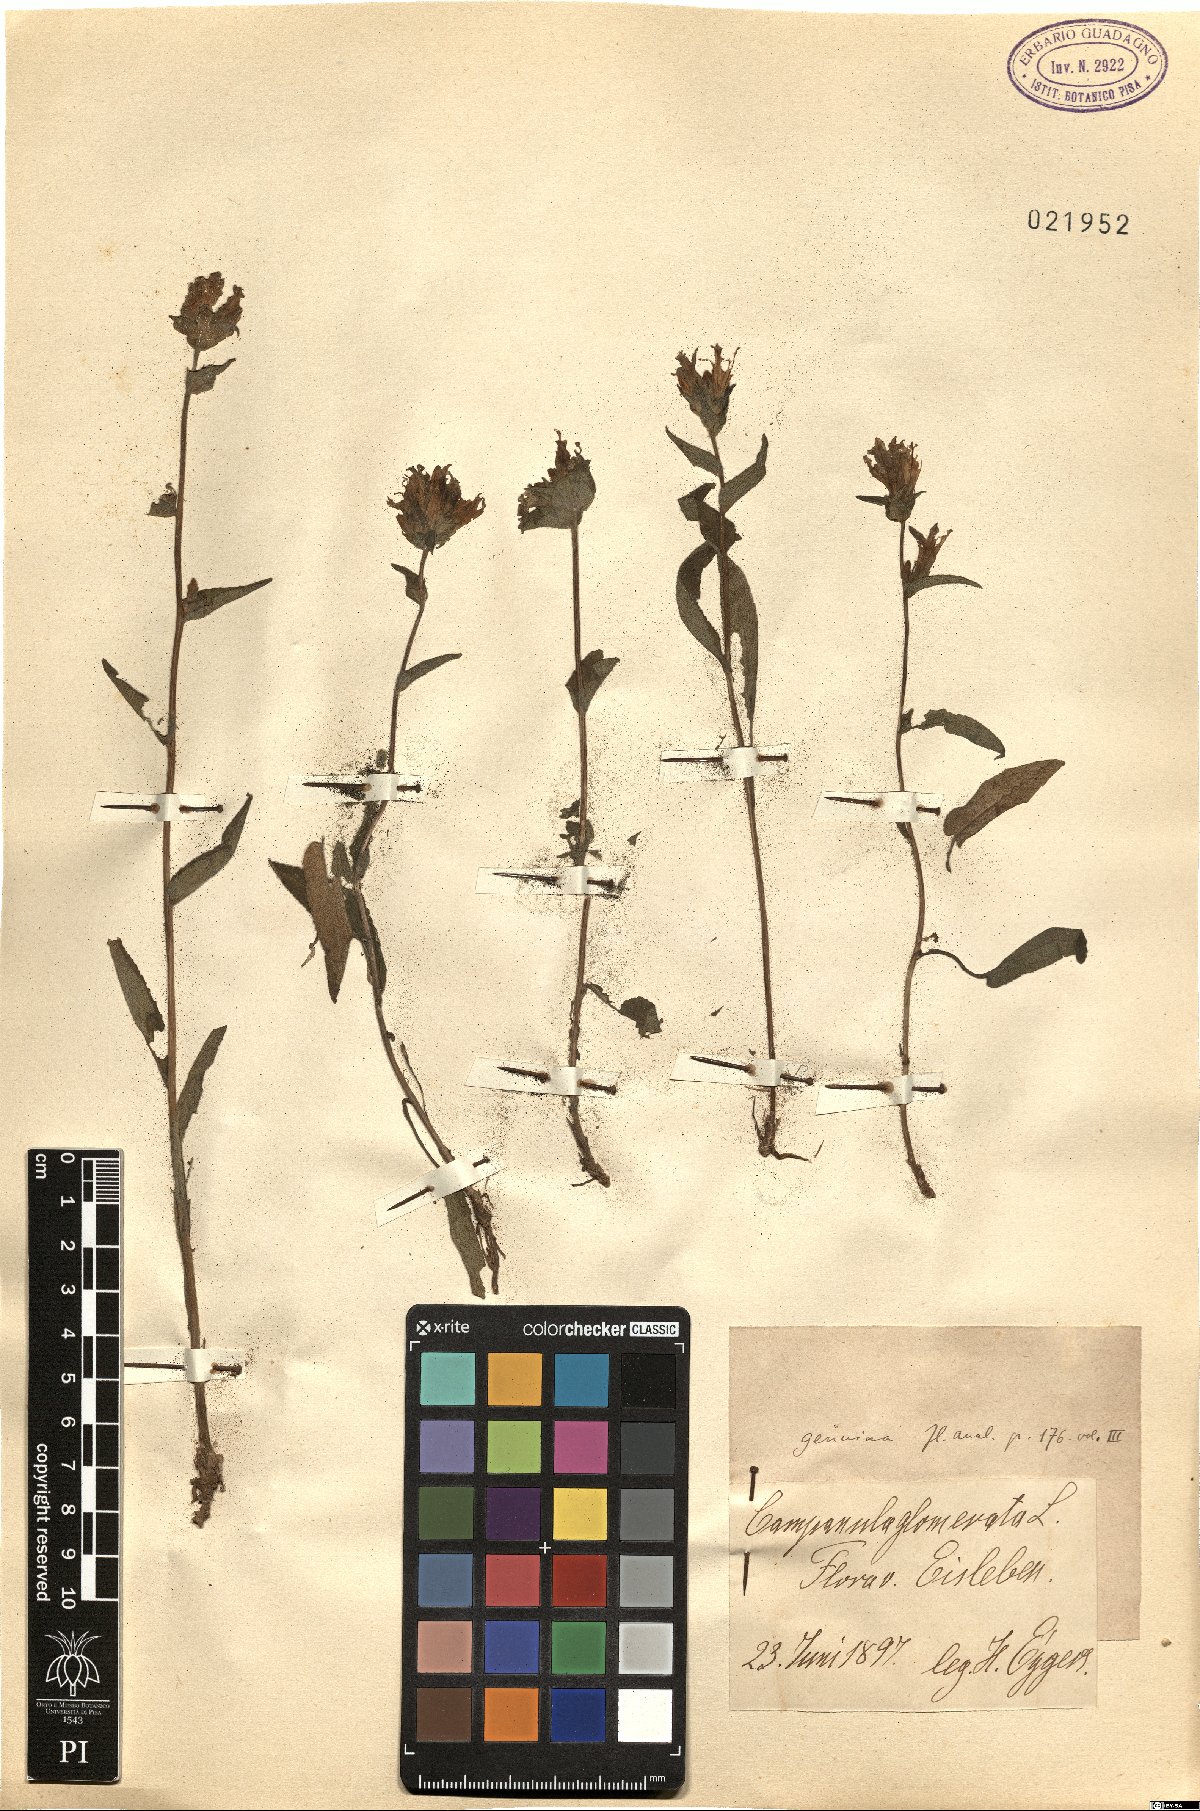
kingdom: Plantae
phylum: Tracheophyta
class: Magnoliopsida
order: Asterales
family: Campanulaceae
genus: Campanula
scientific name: Campanula glomerata
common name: Clustered bellflower
